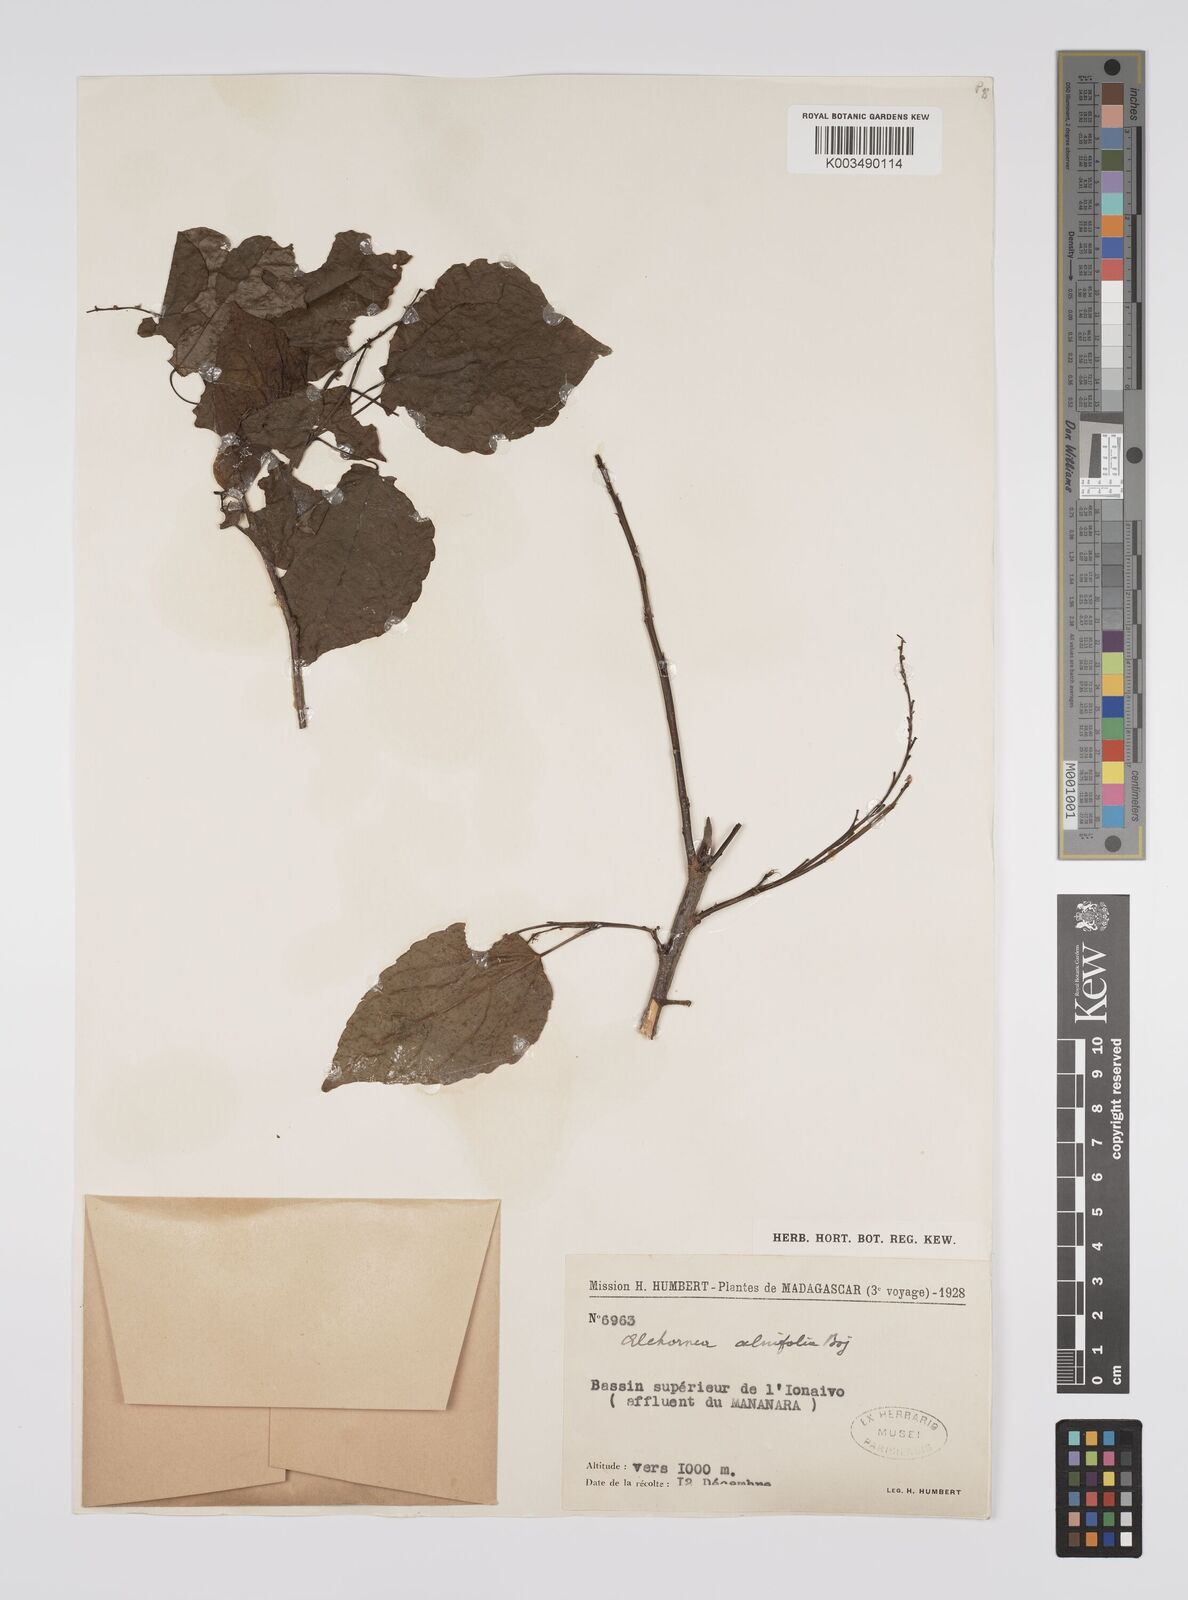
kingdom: Plantae
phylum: Tracheophyta
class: Magnoliopsida
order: Malpighiales
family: Euphorbiaceae
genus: Alchornea
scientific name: Alchornea alnifolia
